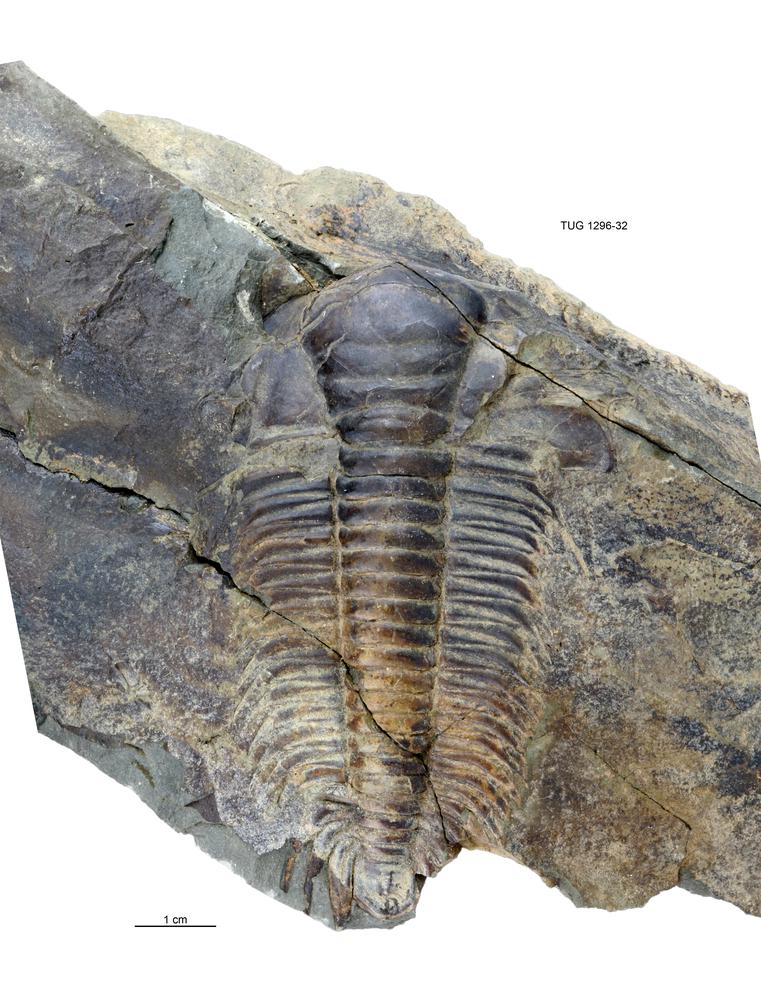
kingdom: Animalia
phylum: Arthropoda
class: Trilobita
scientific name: Trilobita
